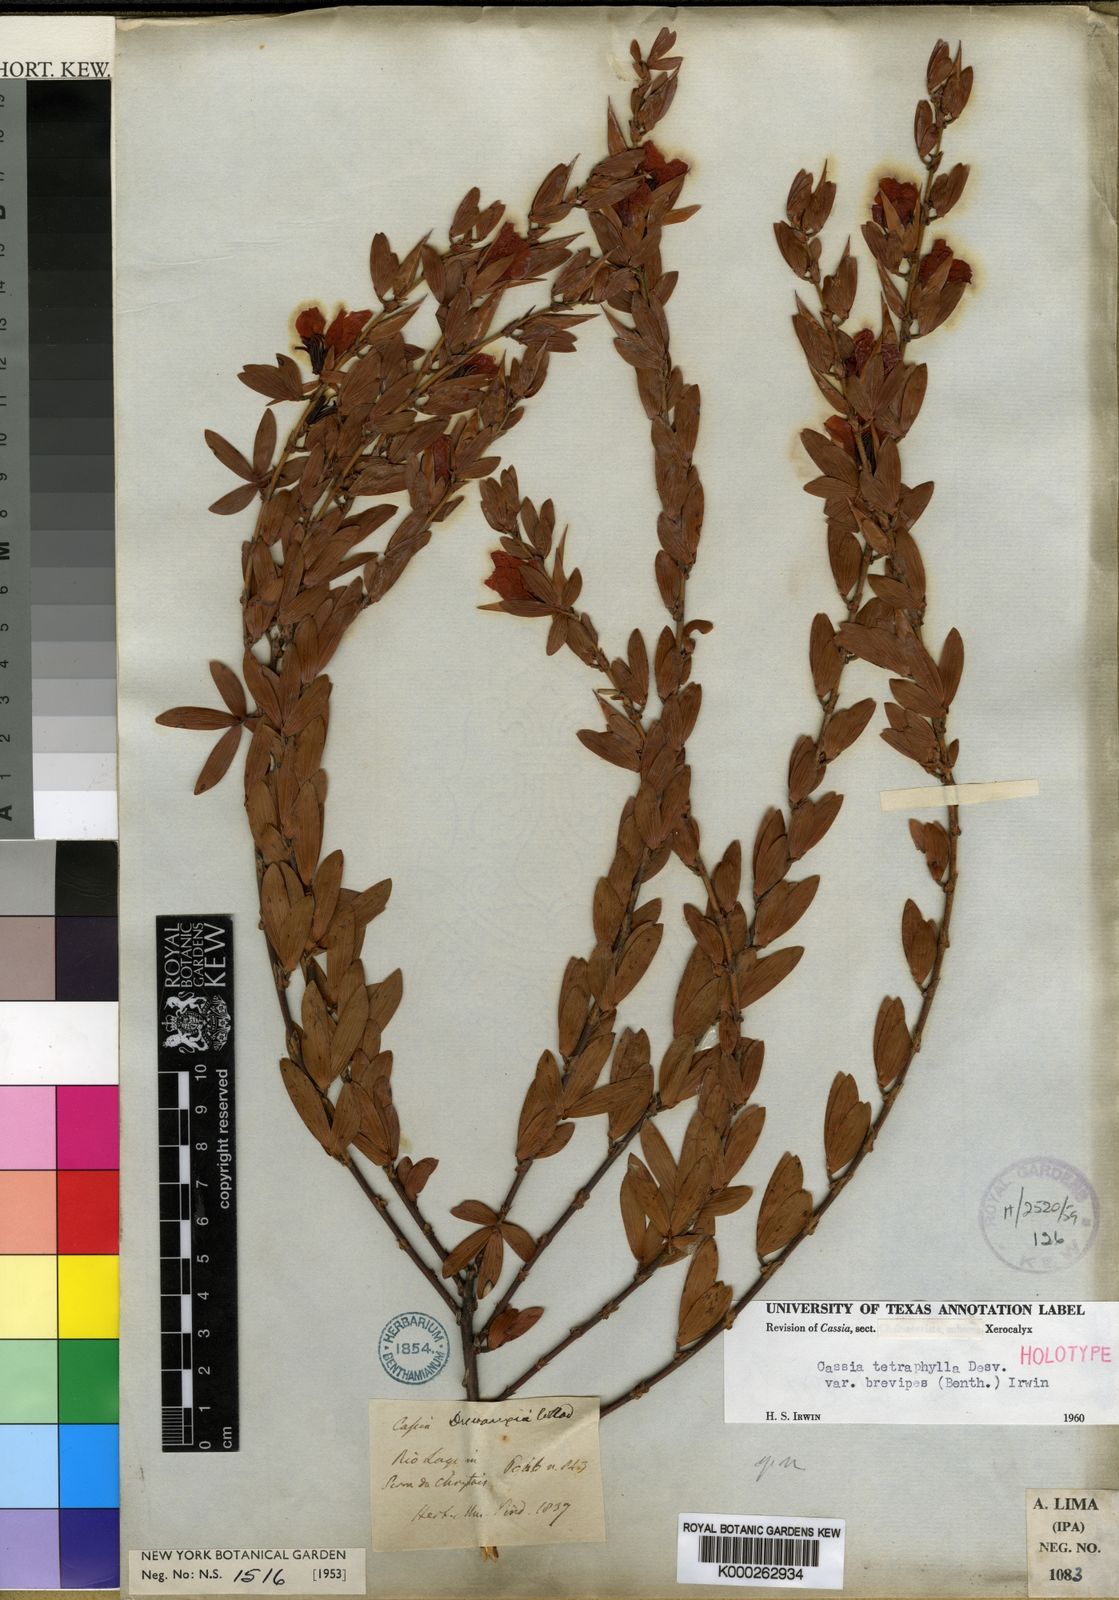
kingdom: Plantae
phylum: Tracheophyta
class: Magnoliopsida
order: Fabales
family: Fabaceae
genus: Chamaecrista
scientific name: Chamaecrista desvauxii
